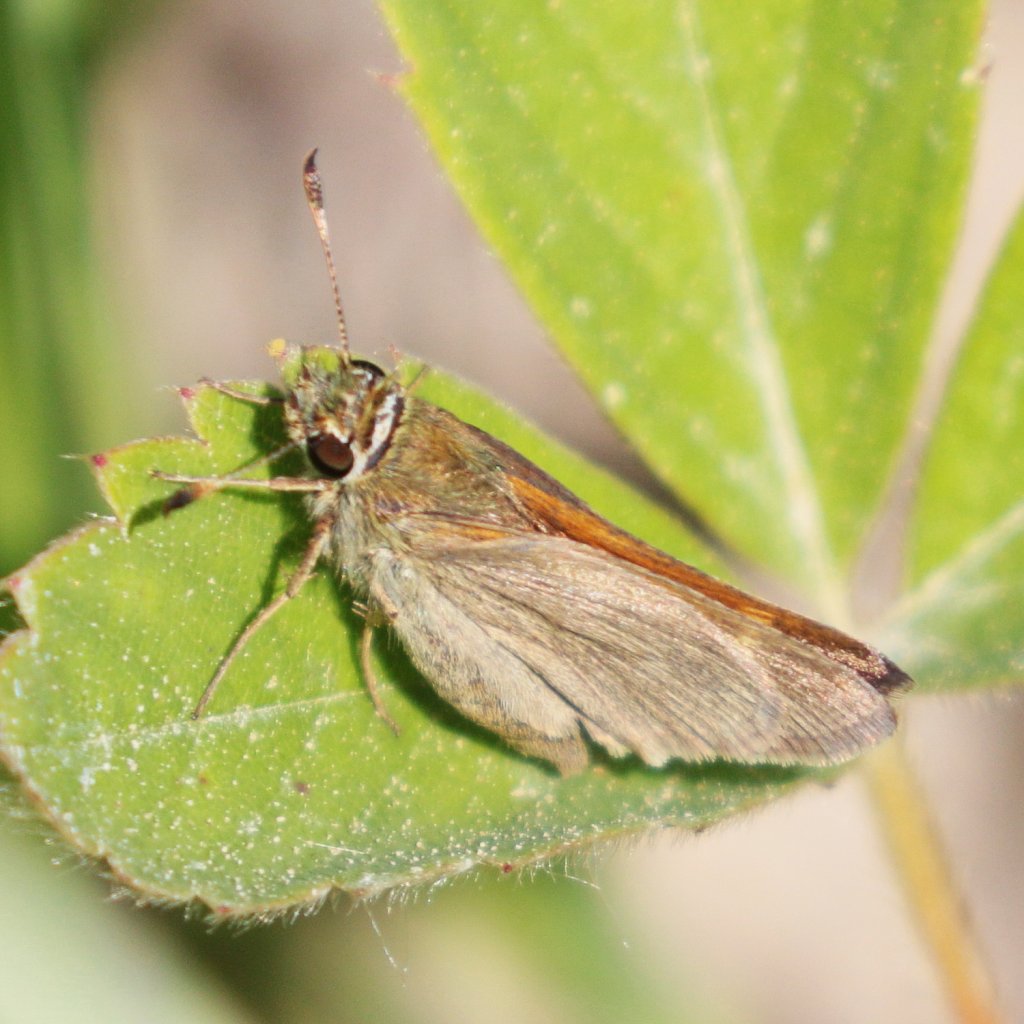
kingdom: Animalia
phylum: Arthropoda
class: Insecta
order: Lepidoptera
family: Hesperiidae
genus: Polites
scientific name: Polites themistocles
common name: Tawny-edged Skipper
